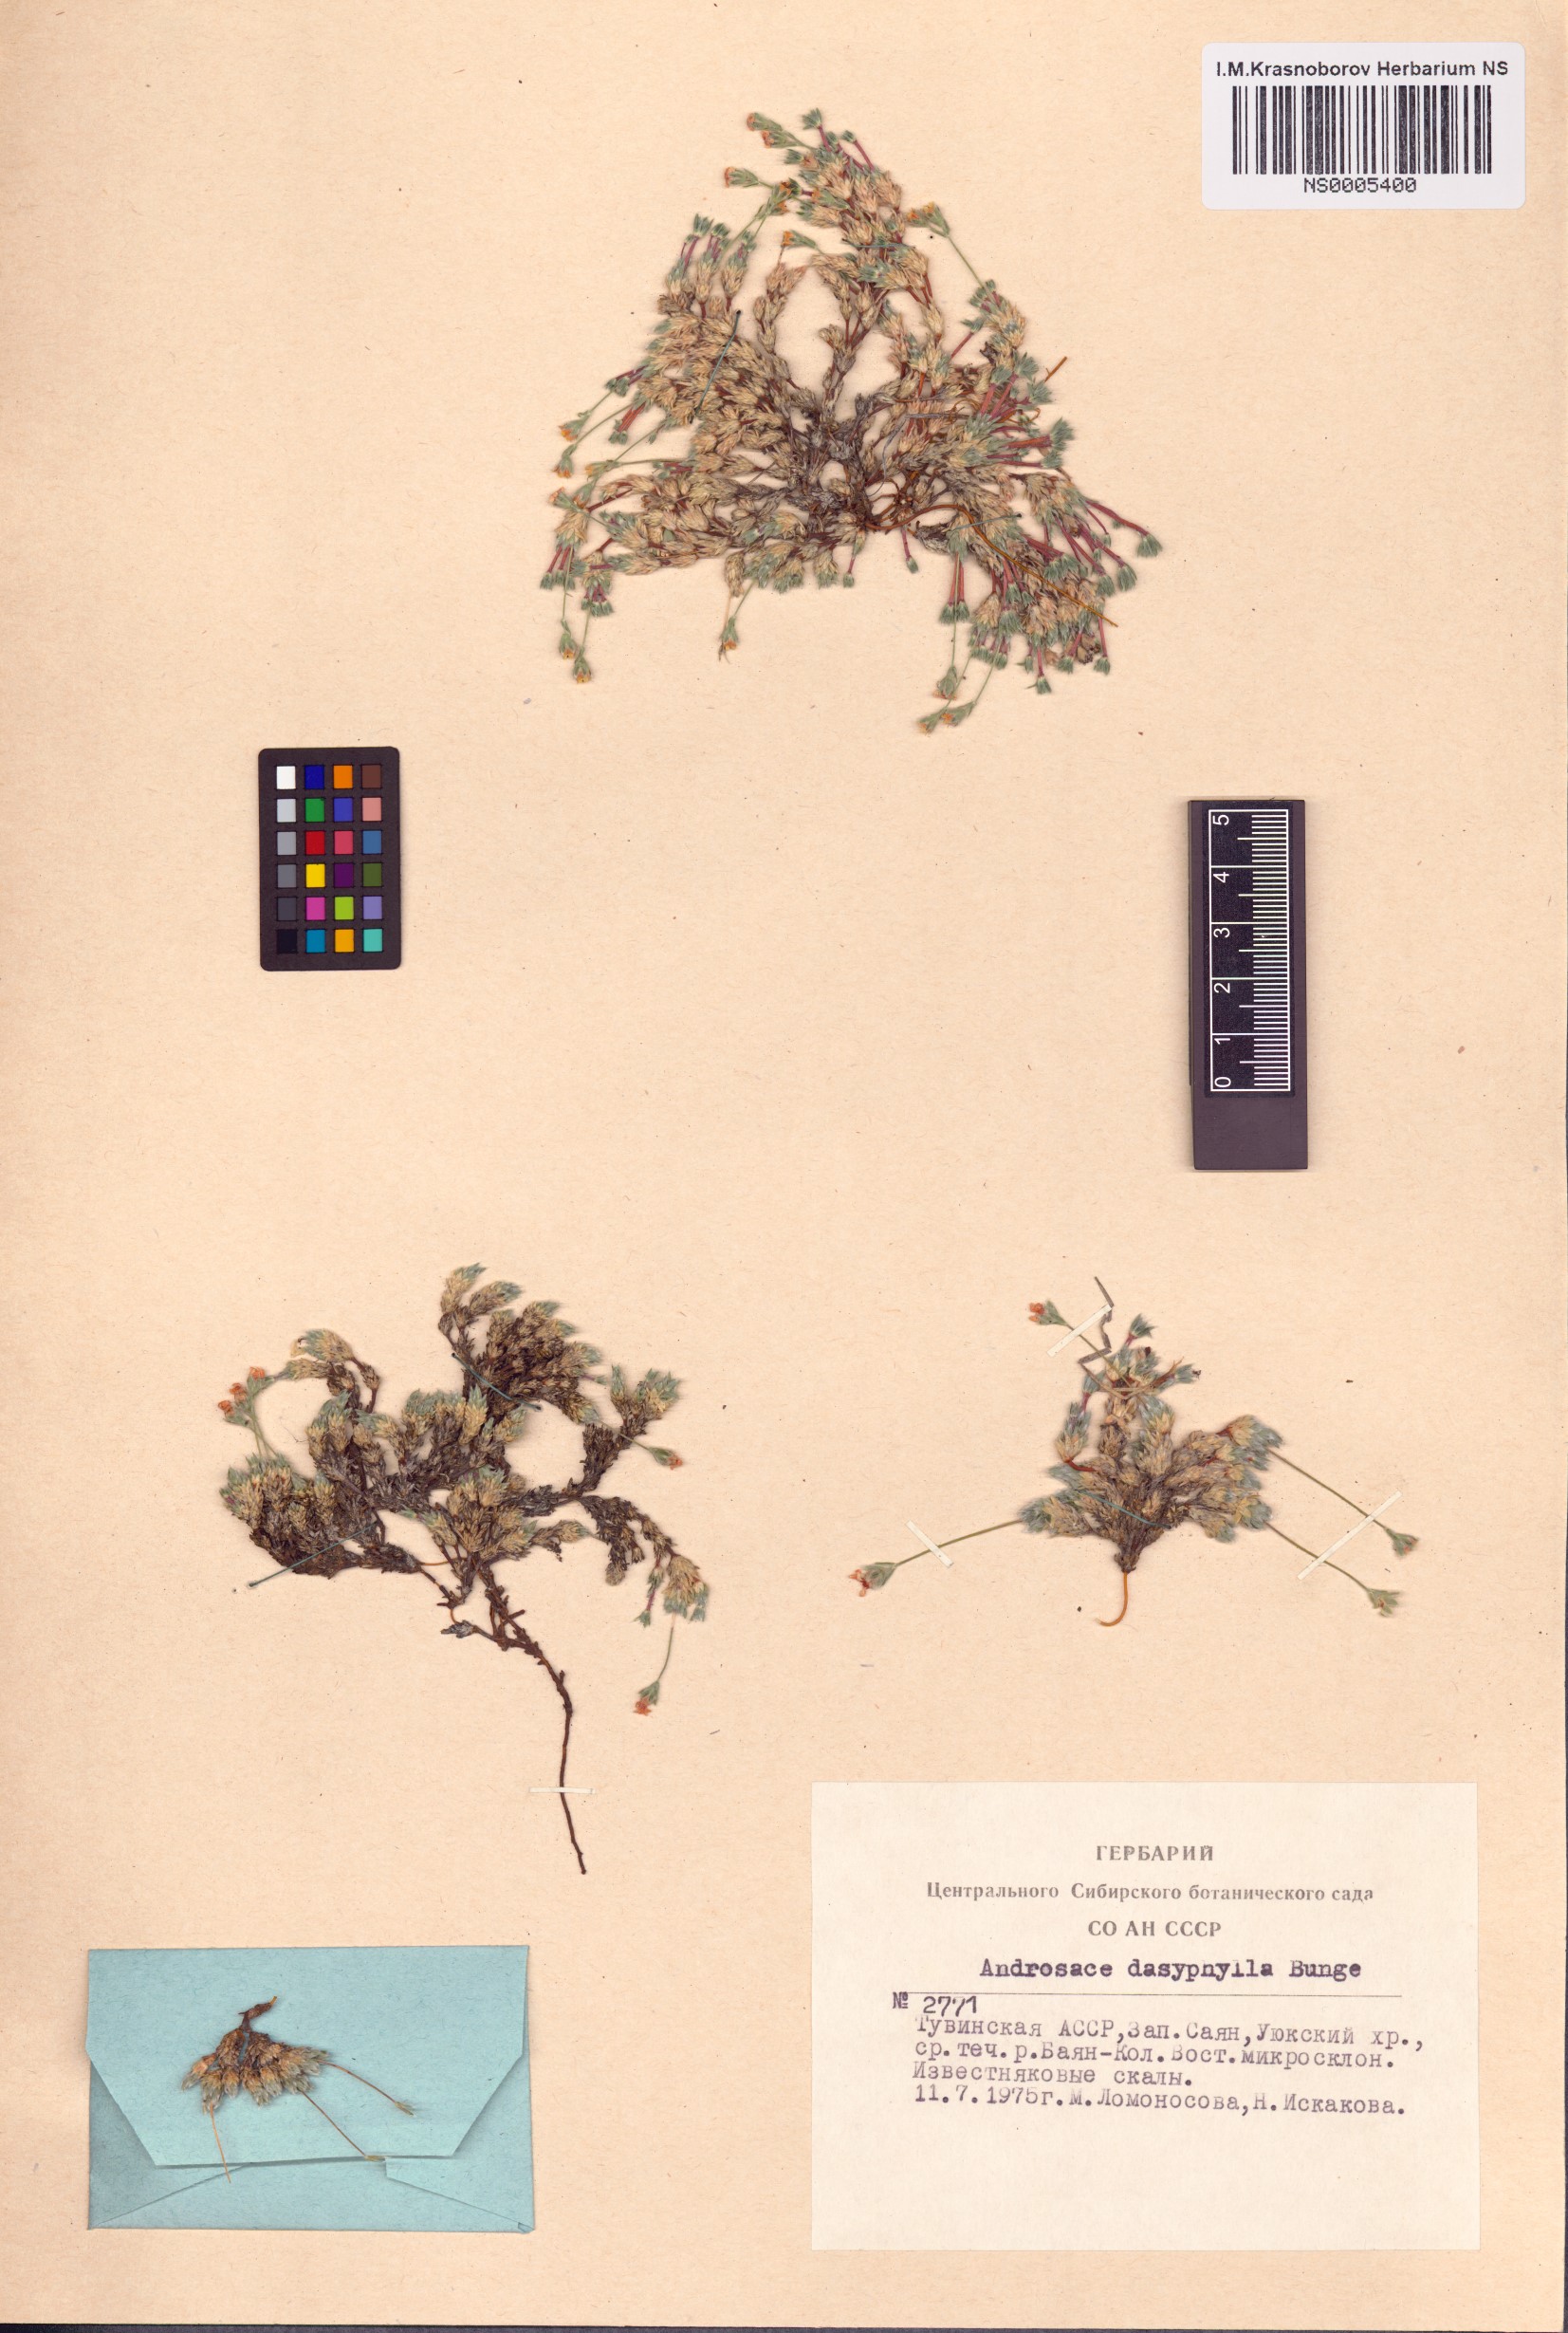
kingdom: Plantae
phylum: Tracheophyta
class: Magnoliopsida
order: Ericales
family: Primulaceae
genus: Androsace
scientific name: Androsace dasyphylla
